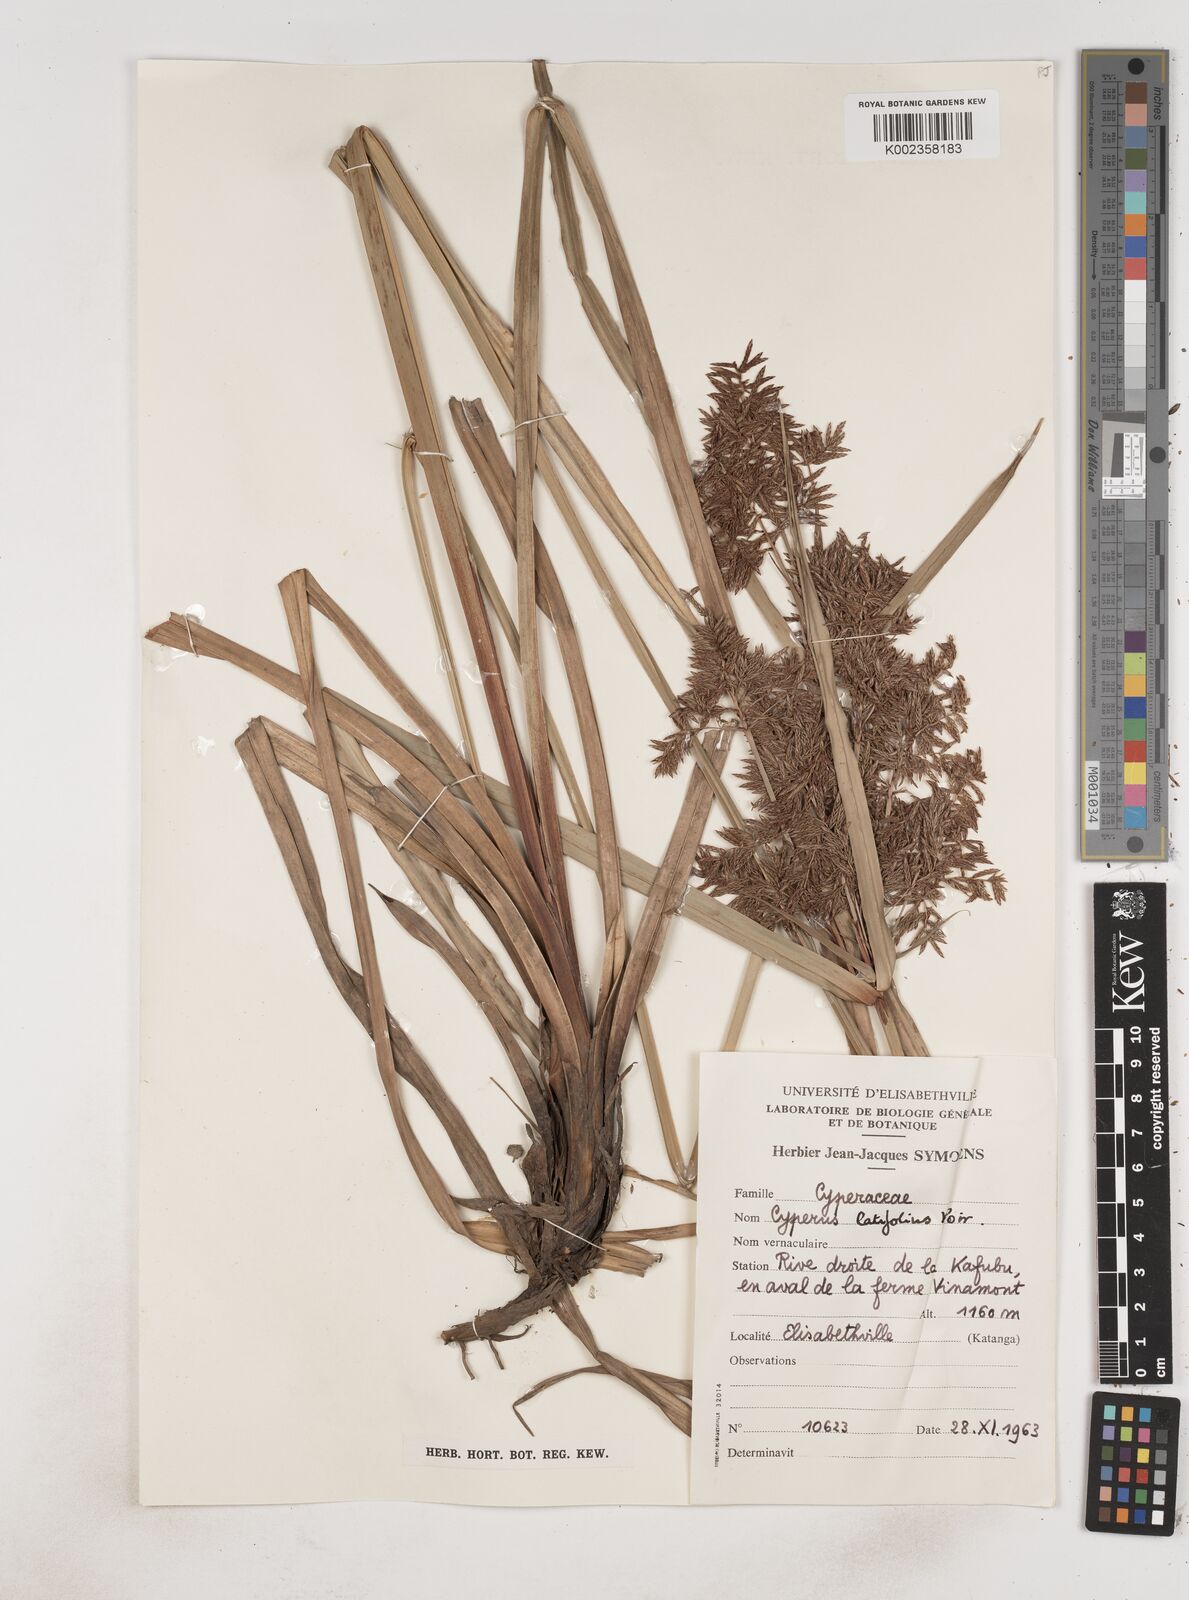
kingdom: Plantae
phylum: Tracheophyta
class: Liliopsida
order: Poales
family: Cyperaceae
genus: Cyperus
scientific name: Cyperus latifolius
